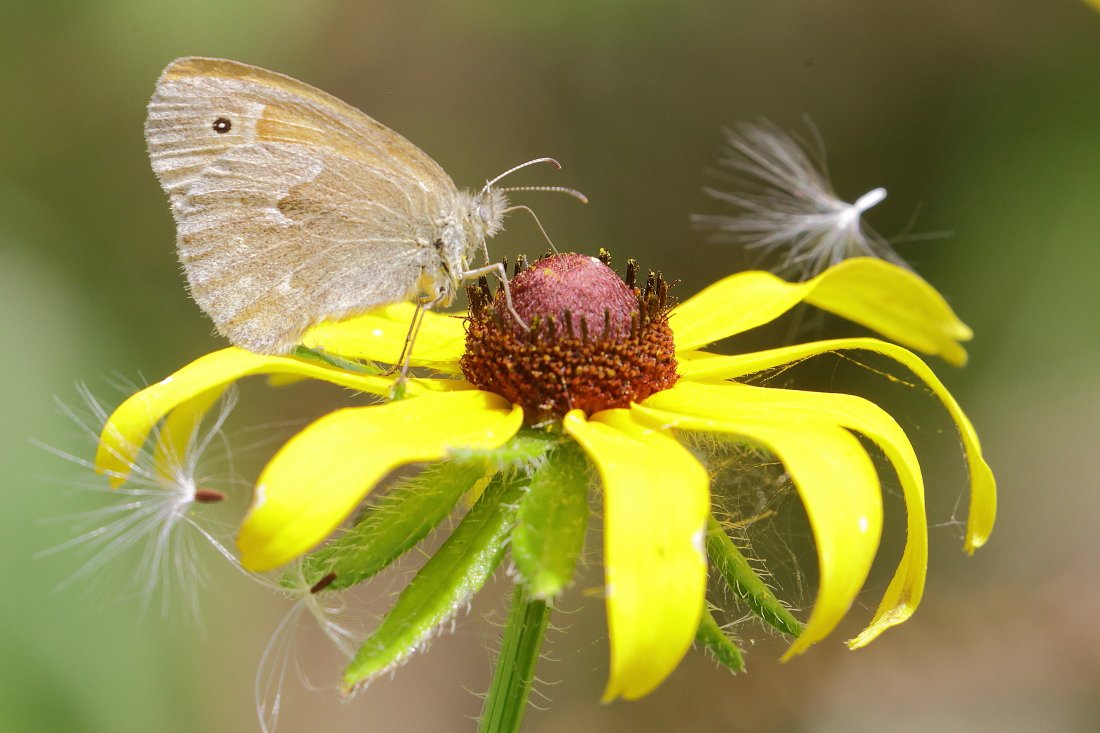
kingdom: Animalia
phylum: Arthropoda
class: Insecta
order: Lepidoptera
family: Nymphalidae
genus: Coenonympha
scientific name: Coenonympha tullia
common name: Large Heath
